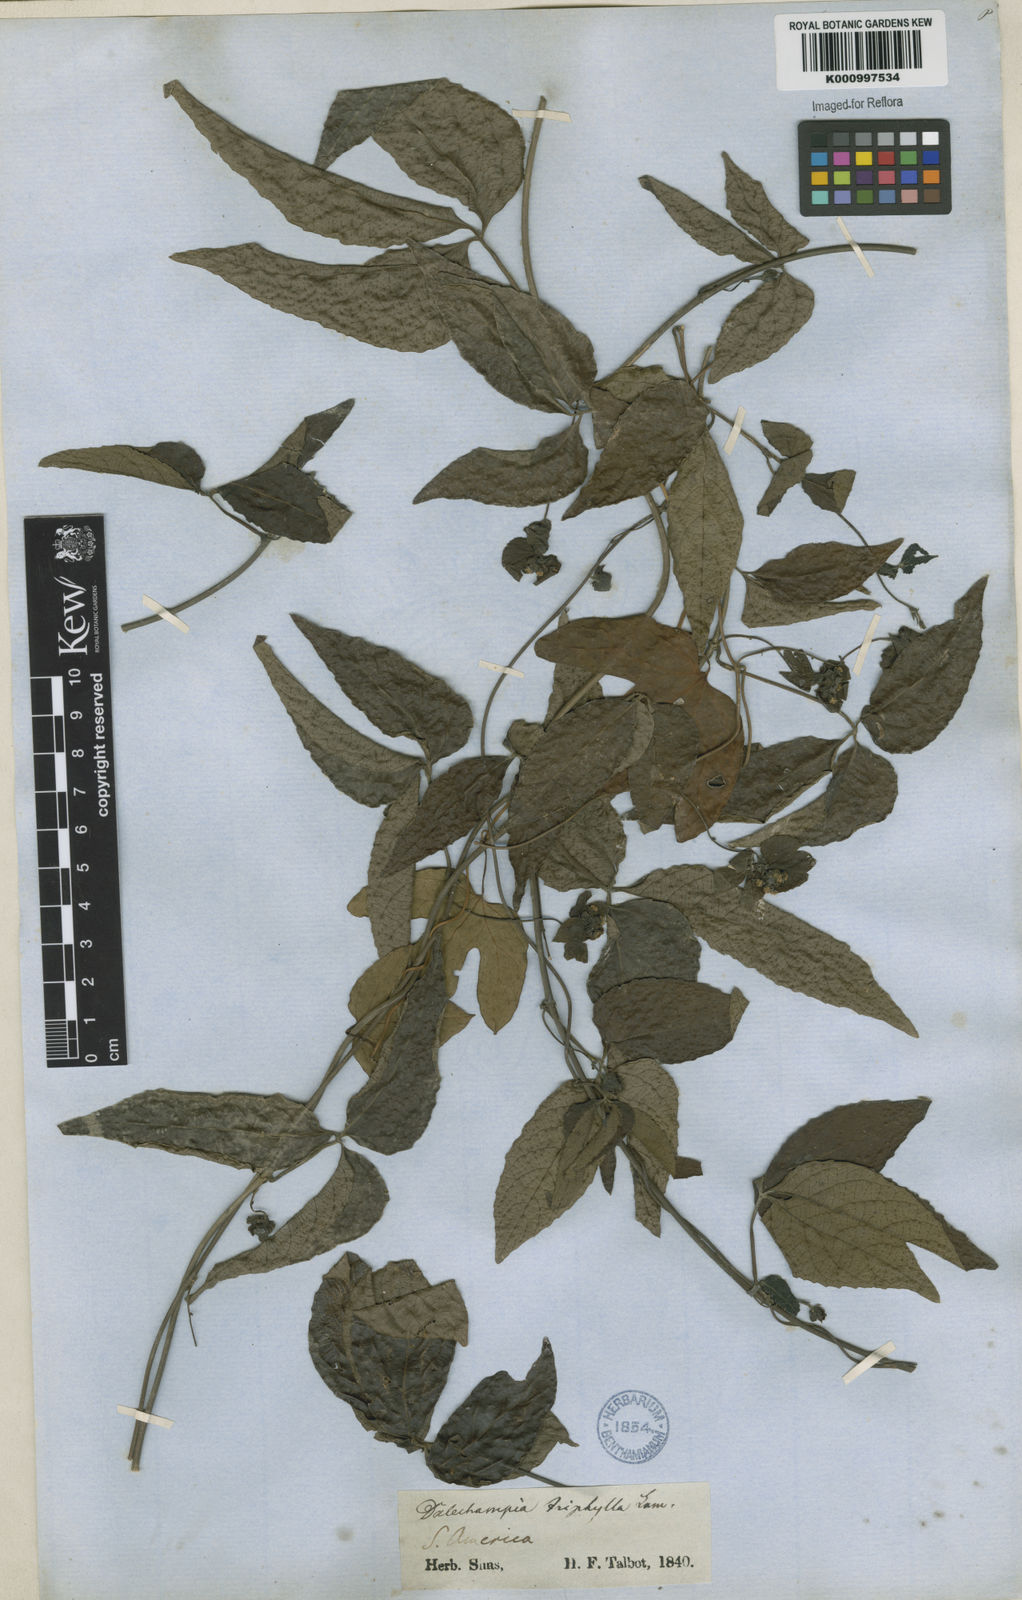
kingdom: Plantae
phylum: Tracheophyta
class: Magnoliopsida
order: Malpighiales
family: Euphorbiaceae
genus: Dalechampia
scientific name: Dalechampia triphylla
